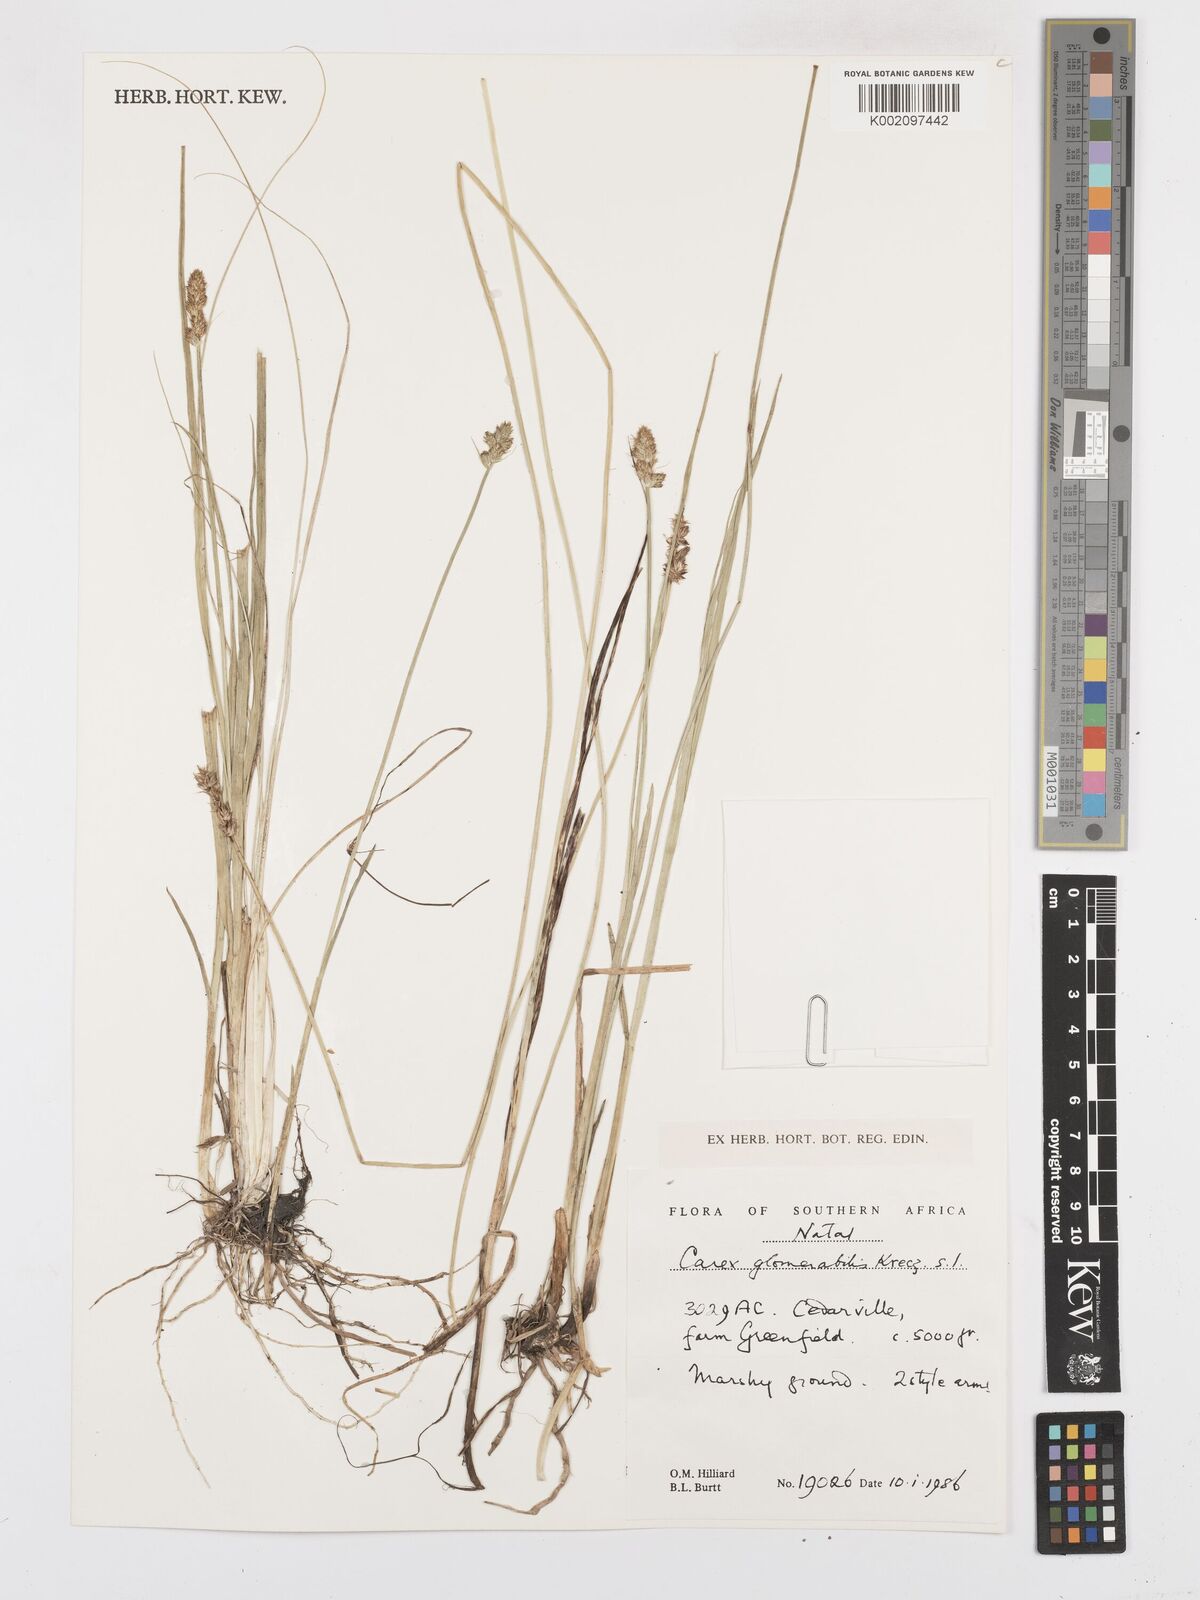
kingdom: Plantae
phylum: Tracheophyta
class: Liliopsida
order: Poales
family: Cyperaceae
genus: Carex
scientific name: Carex glomerata
